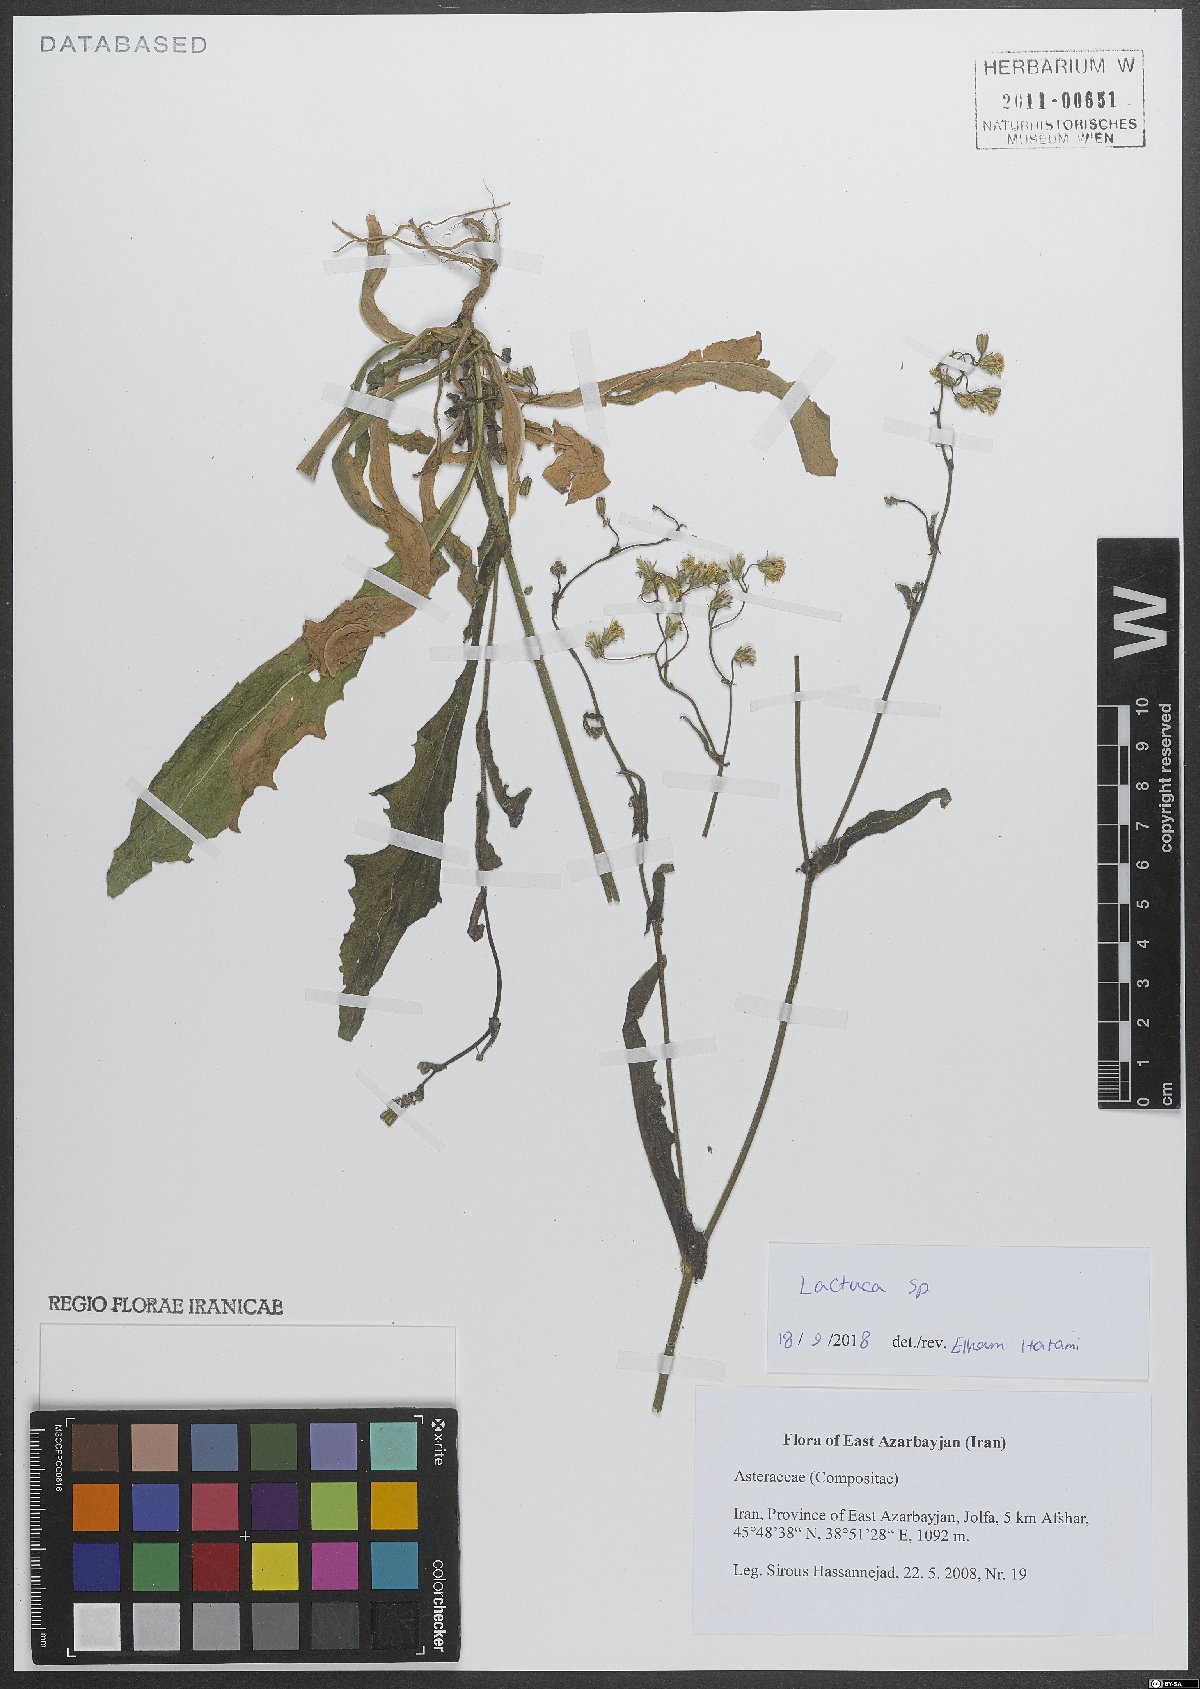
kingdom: Plantae
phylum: Tracheophyta
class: Magnoliopsida
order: Asterales
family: Asteraceae
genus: Lactuca
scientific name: Lactuca
